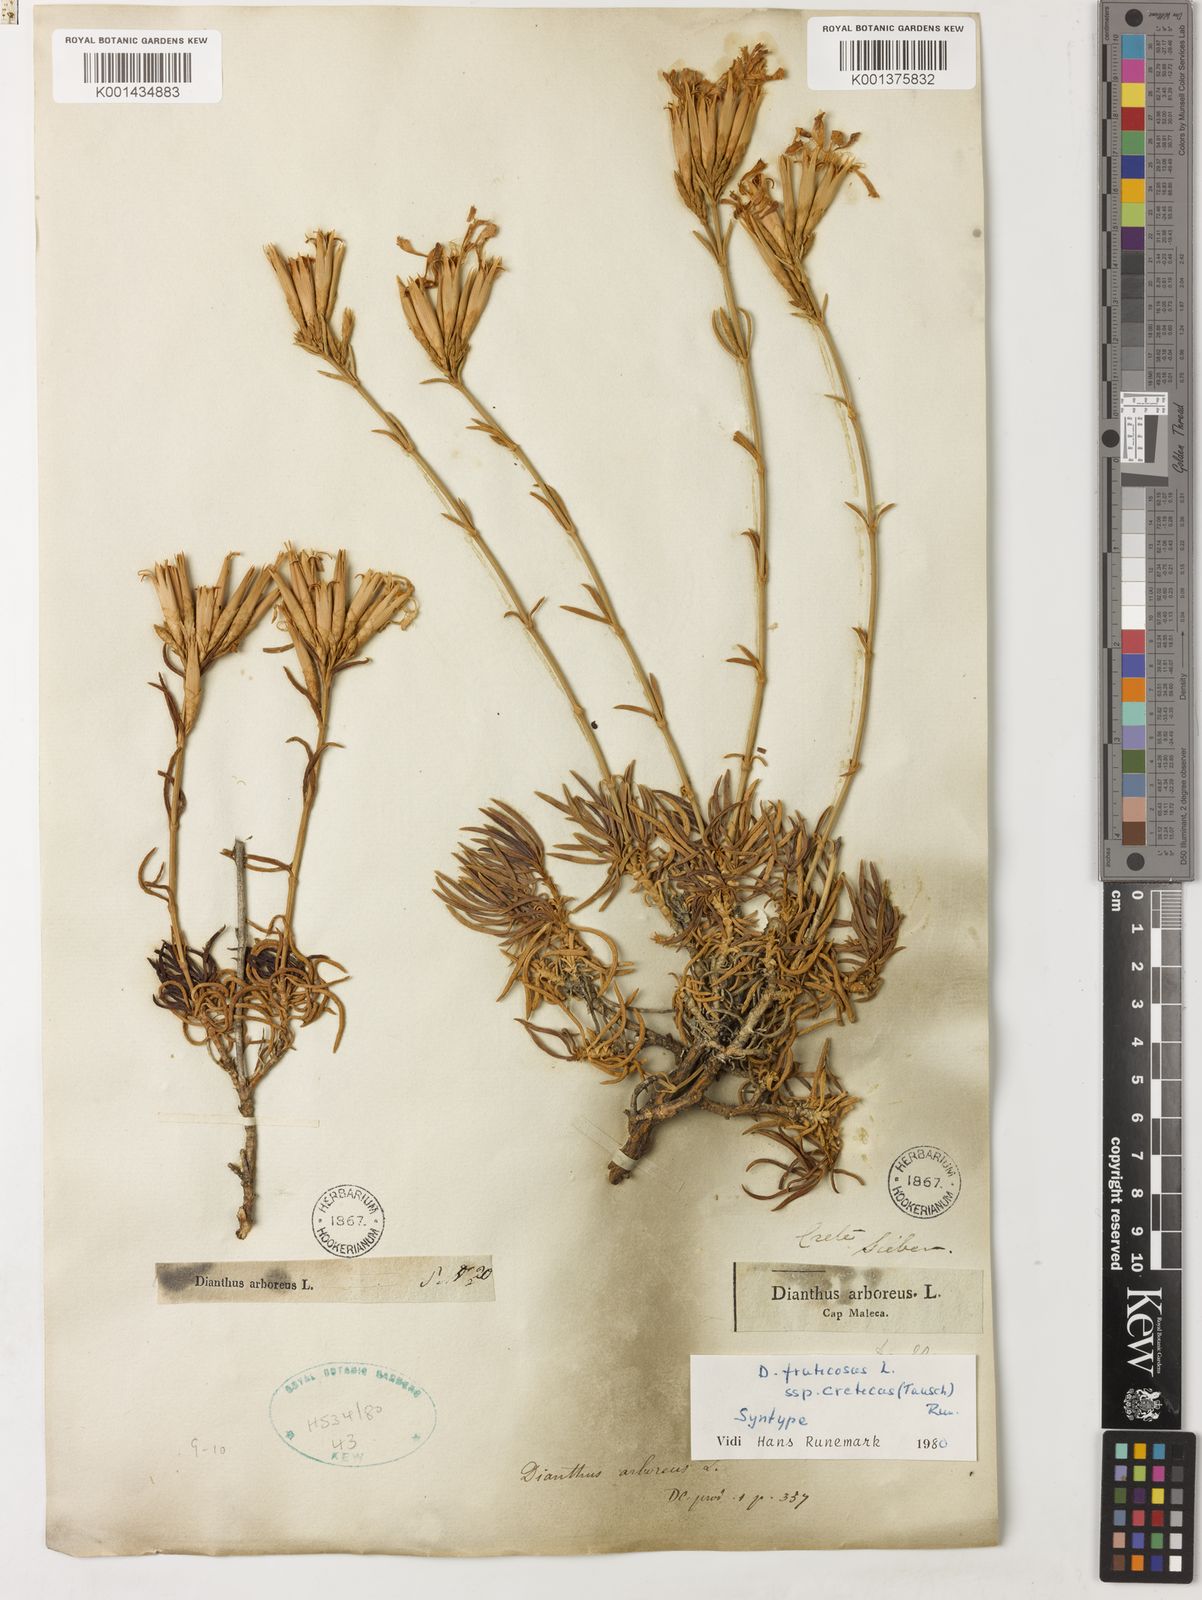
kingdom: Plantae
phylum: Tracheophyta
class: Magnoliopsida
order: Caryophyllales
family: Caryophyllaceae
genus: Dianthus
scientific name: Dianthus juniperinus
